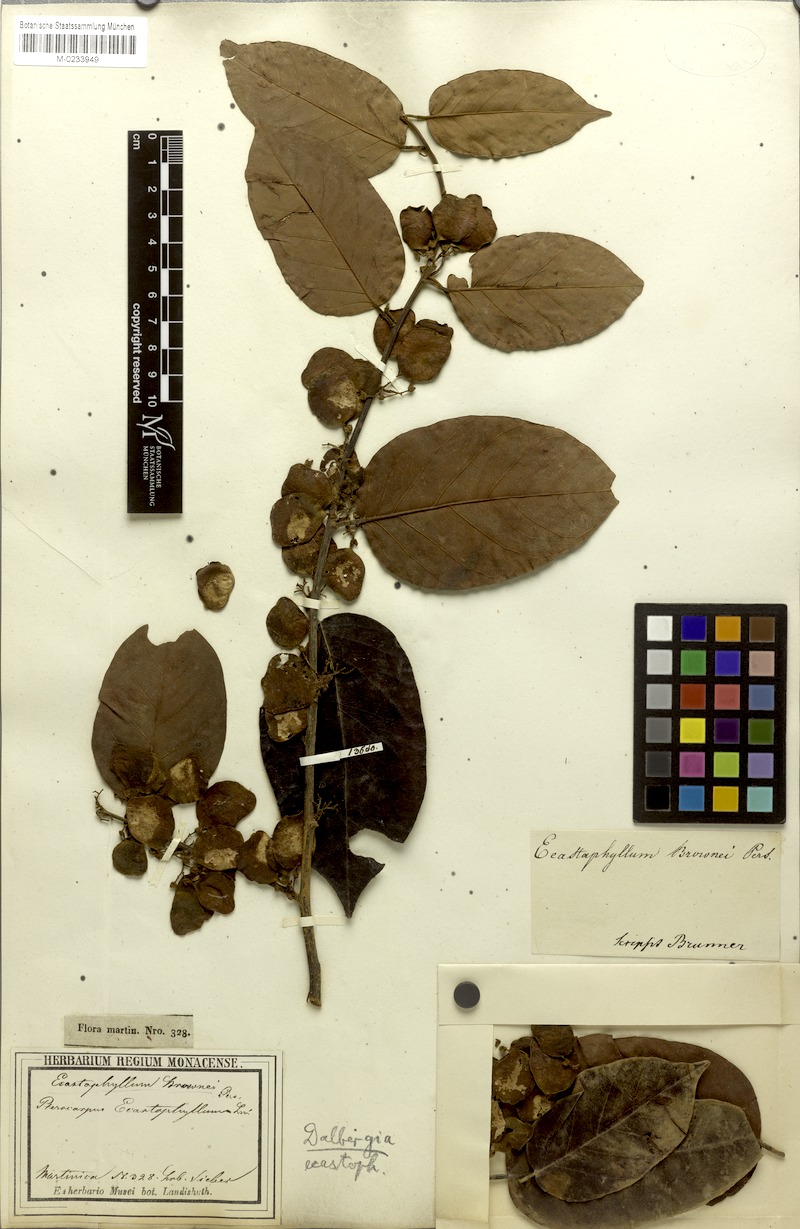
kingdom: Plantae
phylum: Tracheophyta
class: Magnoliopsida
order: Fabales
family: Fabaceae
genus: Dalbergia
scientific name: Dalbergia ecastaphyllum
